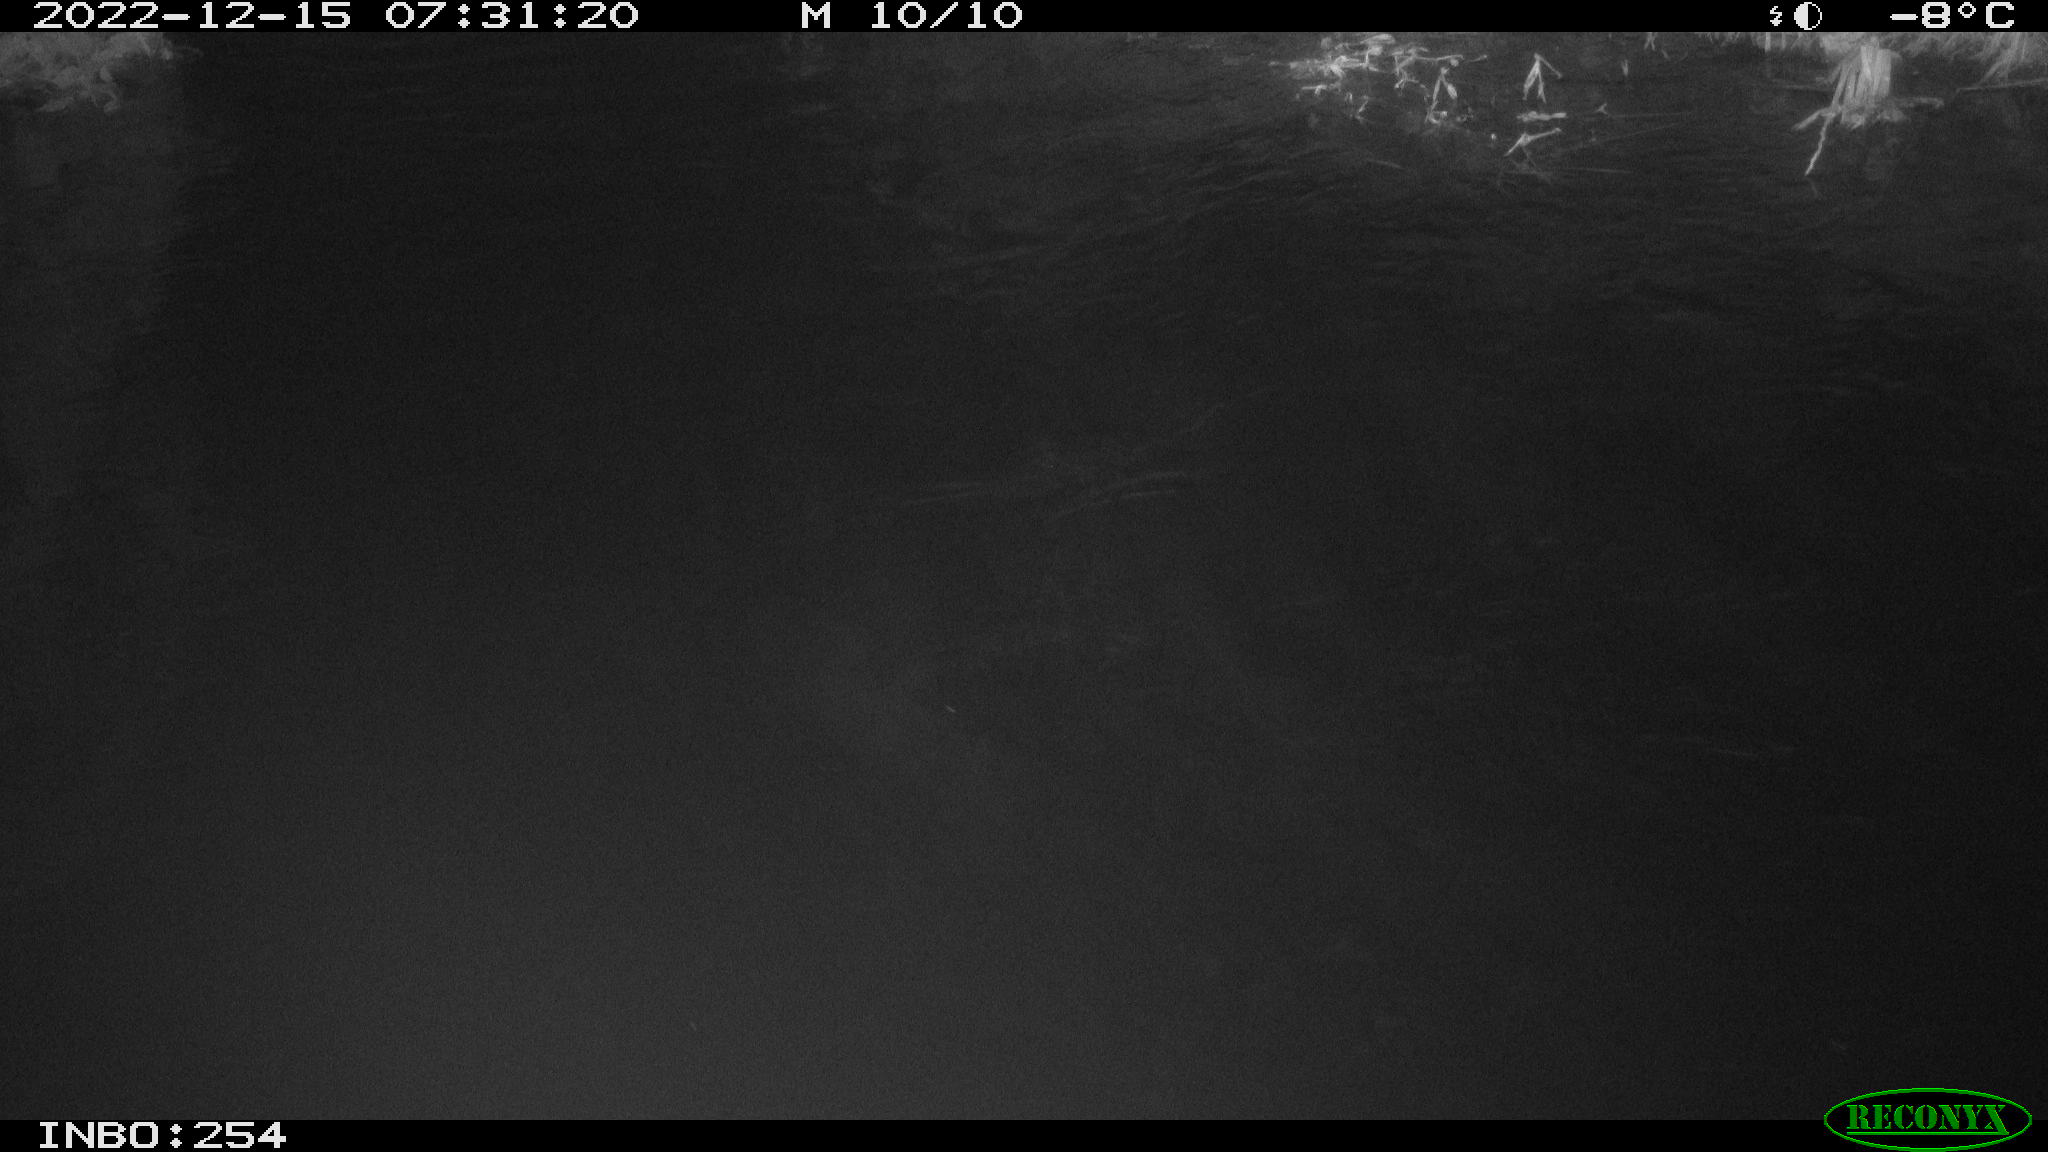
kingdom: Animalia
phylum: Chordata
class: Aves
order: Anseriformes
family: Anatidae
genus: Anas
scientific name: Anas
